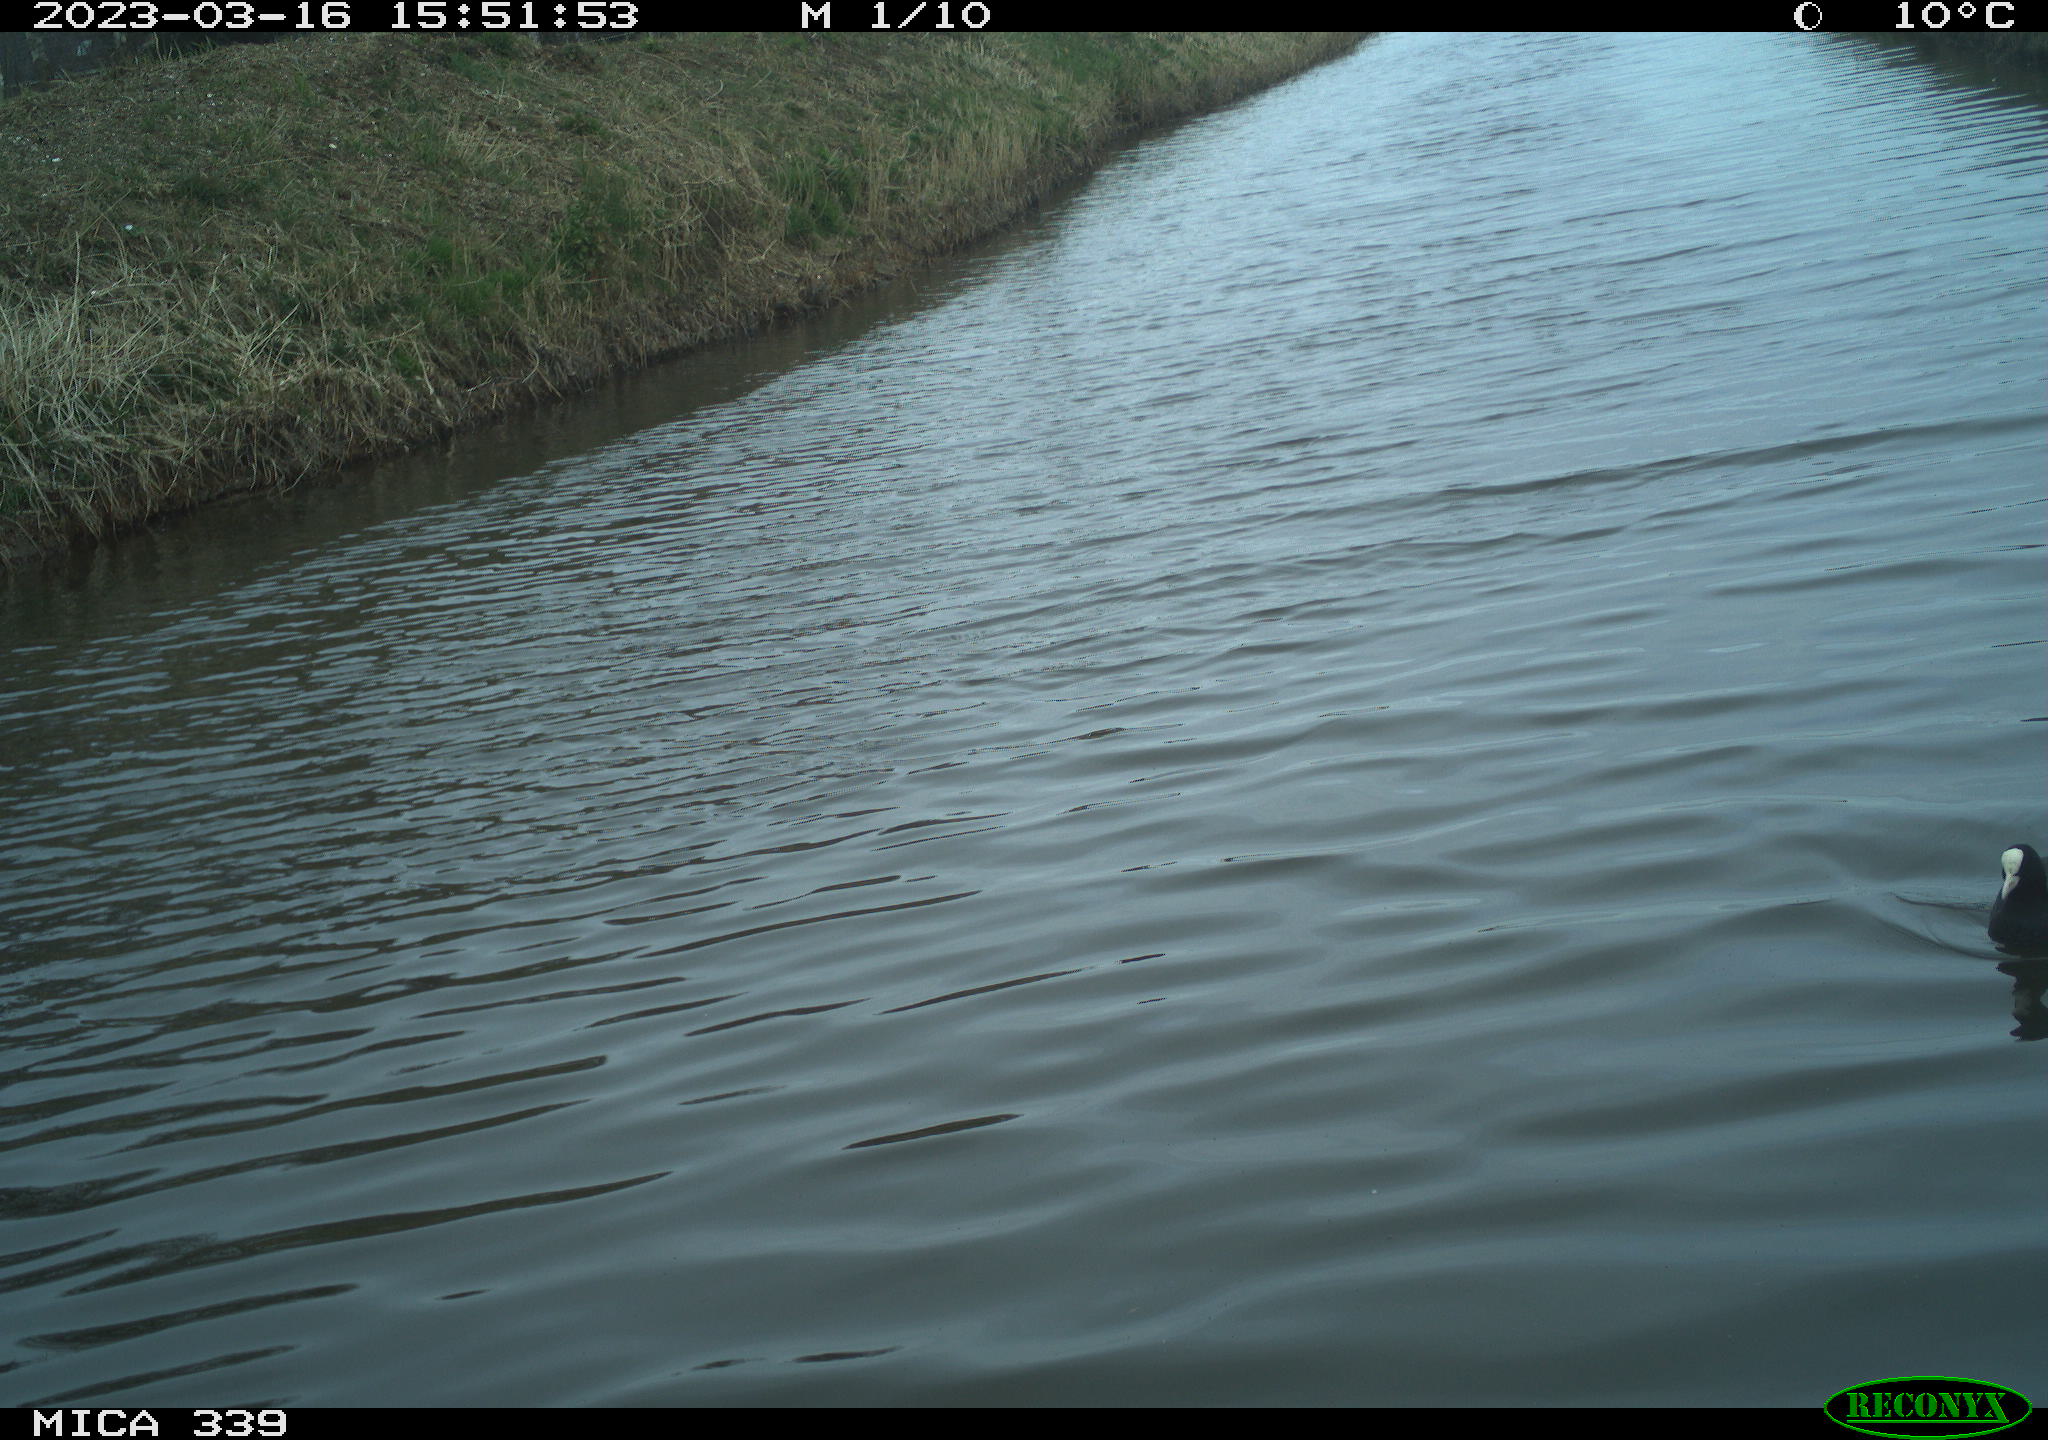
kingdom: Animalia
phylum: Chordata
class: Aves
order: Gruiformes
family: Rallidae
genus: Fulica
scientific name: Fulica atra
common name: Eurasian coot
